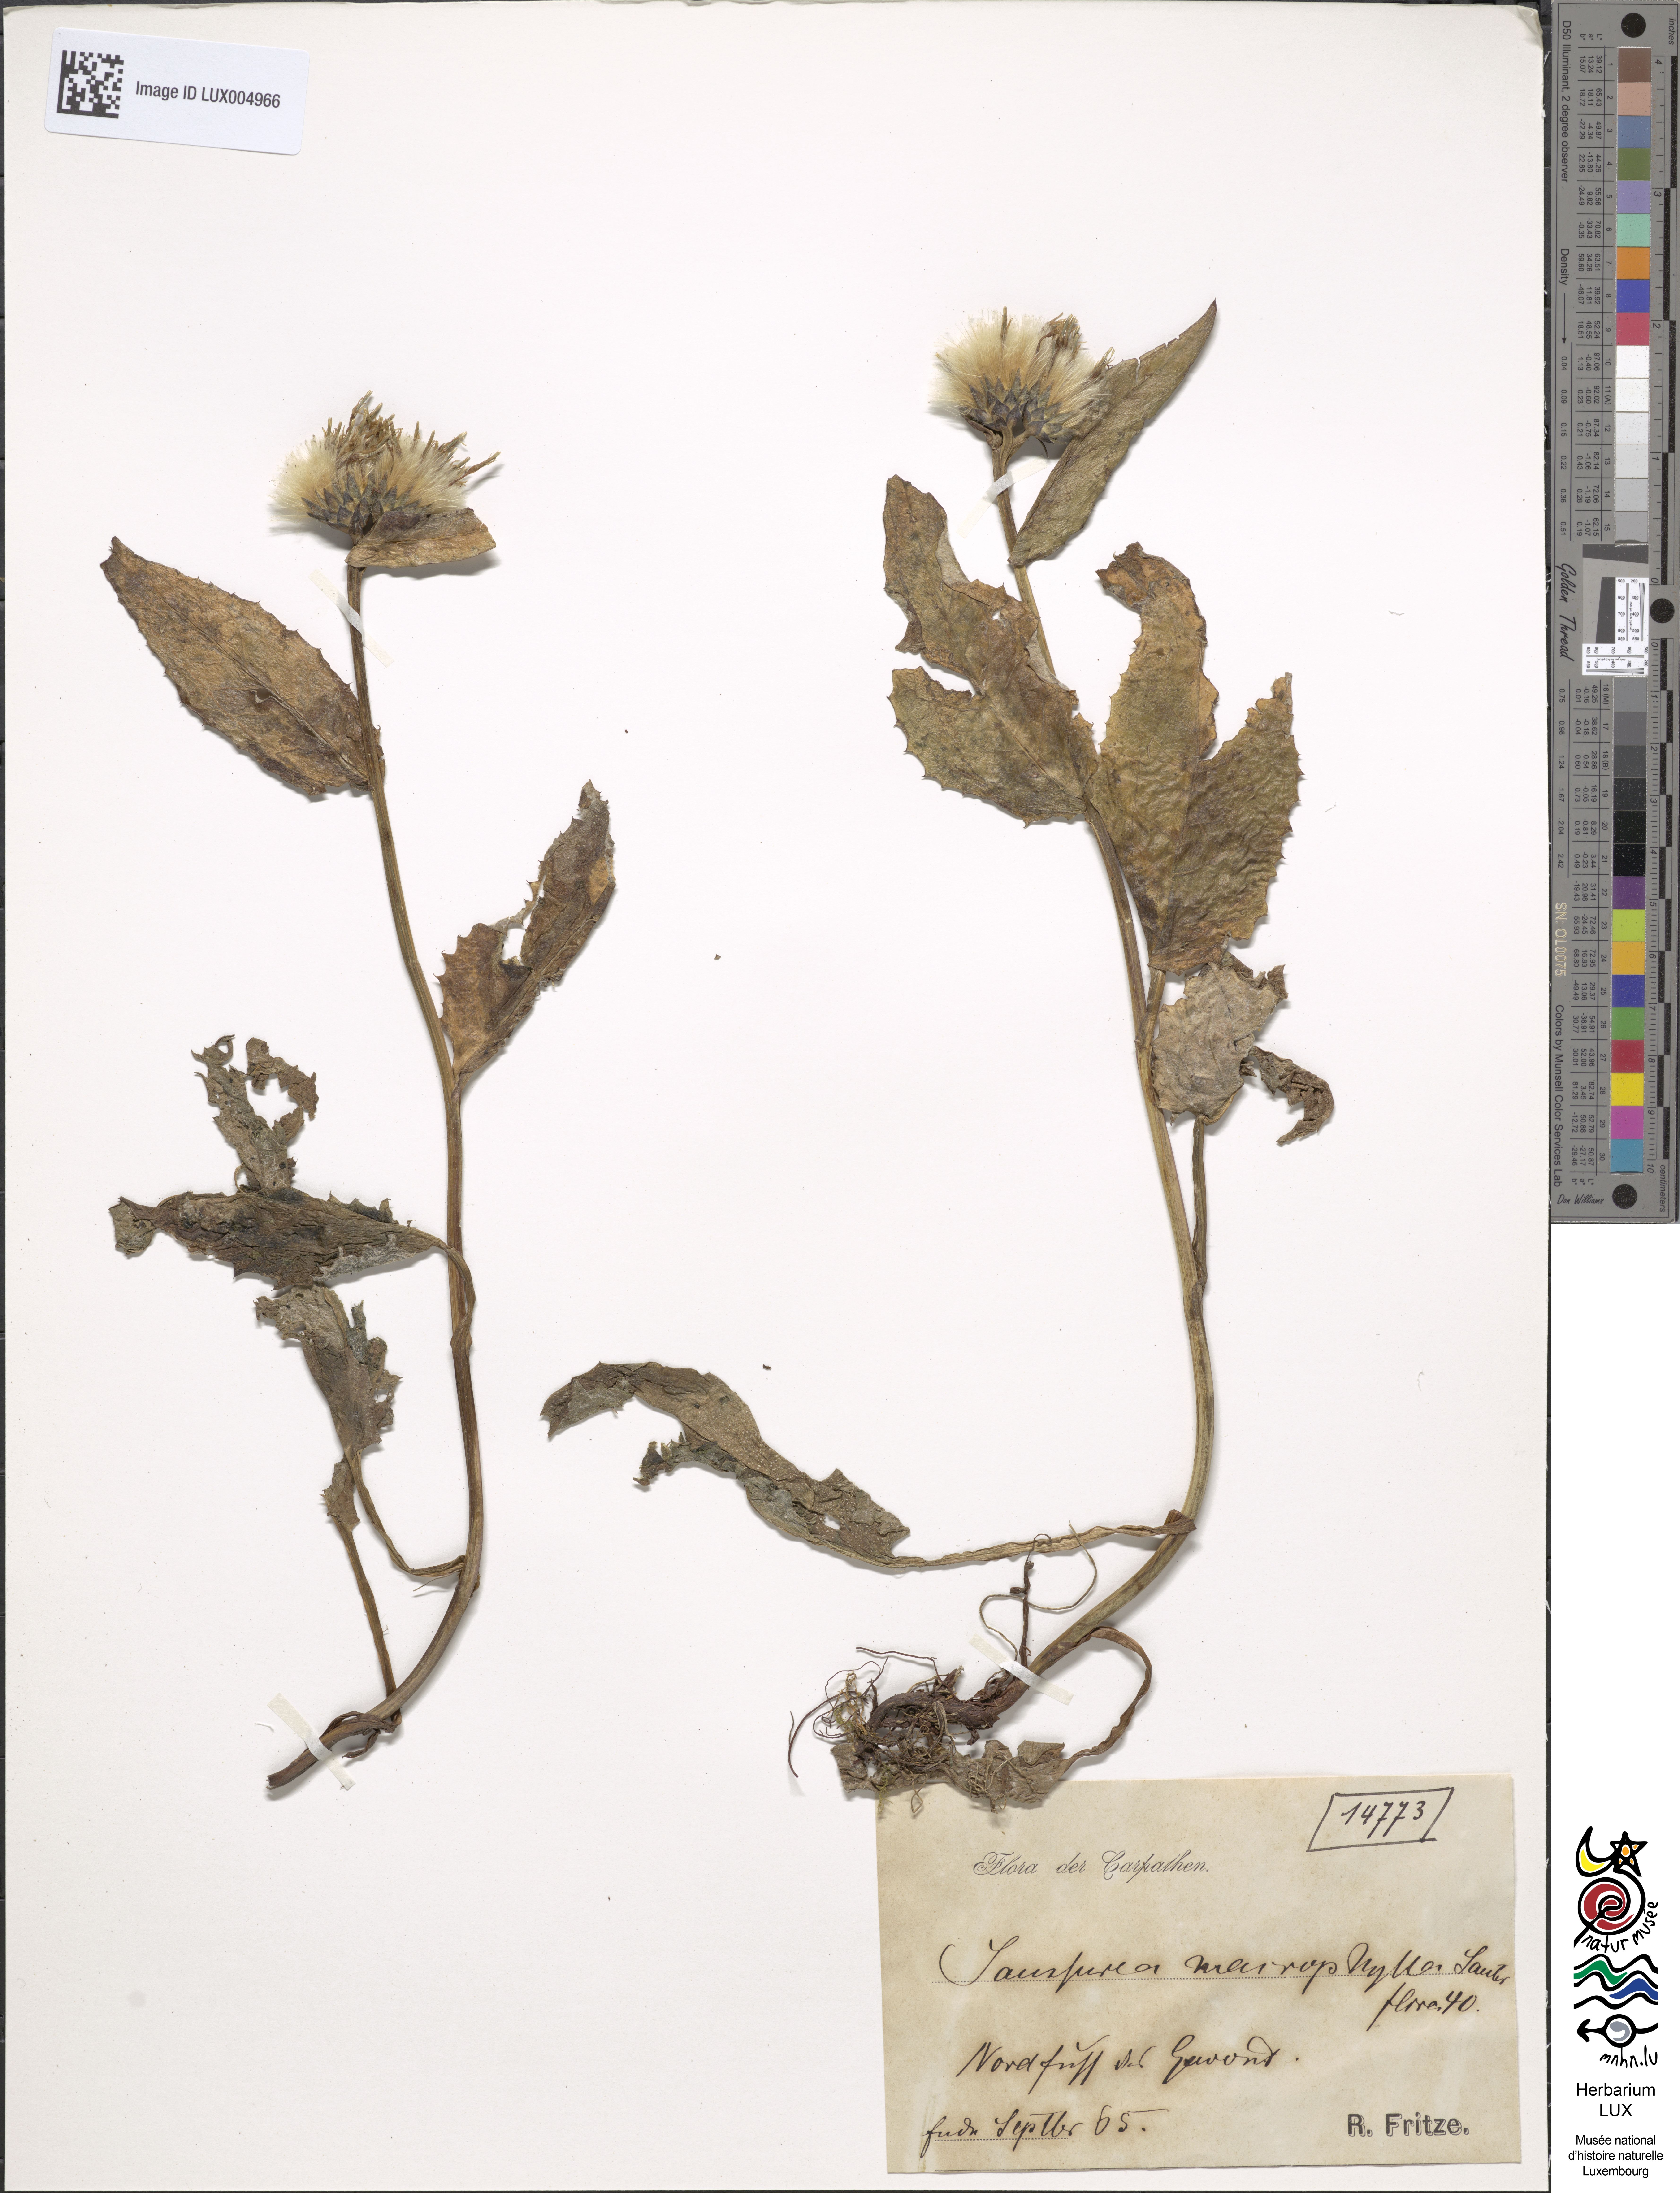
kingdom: Plantae
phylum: Tracheophyta
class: Magnoliopsida
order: Asterales
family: Asteraceae
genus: Saussurea
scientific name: Saussurea alpina
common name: Alpine saw-wort
